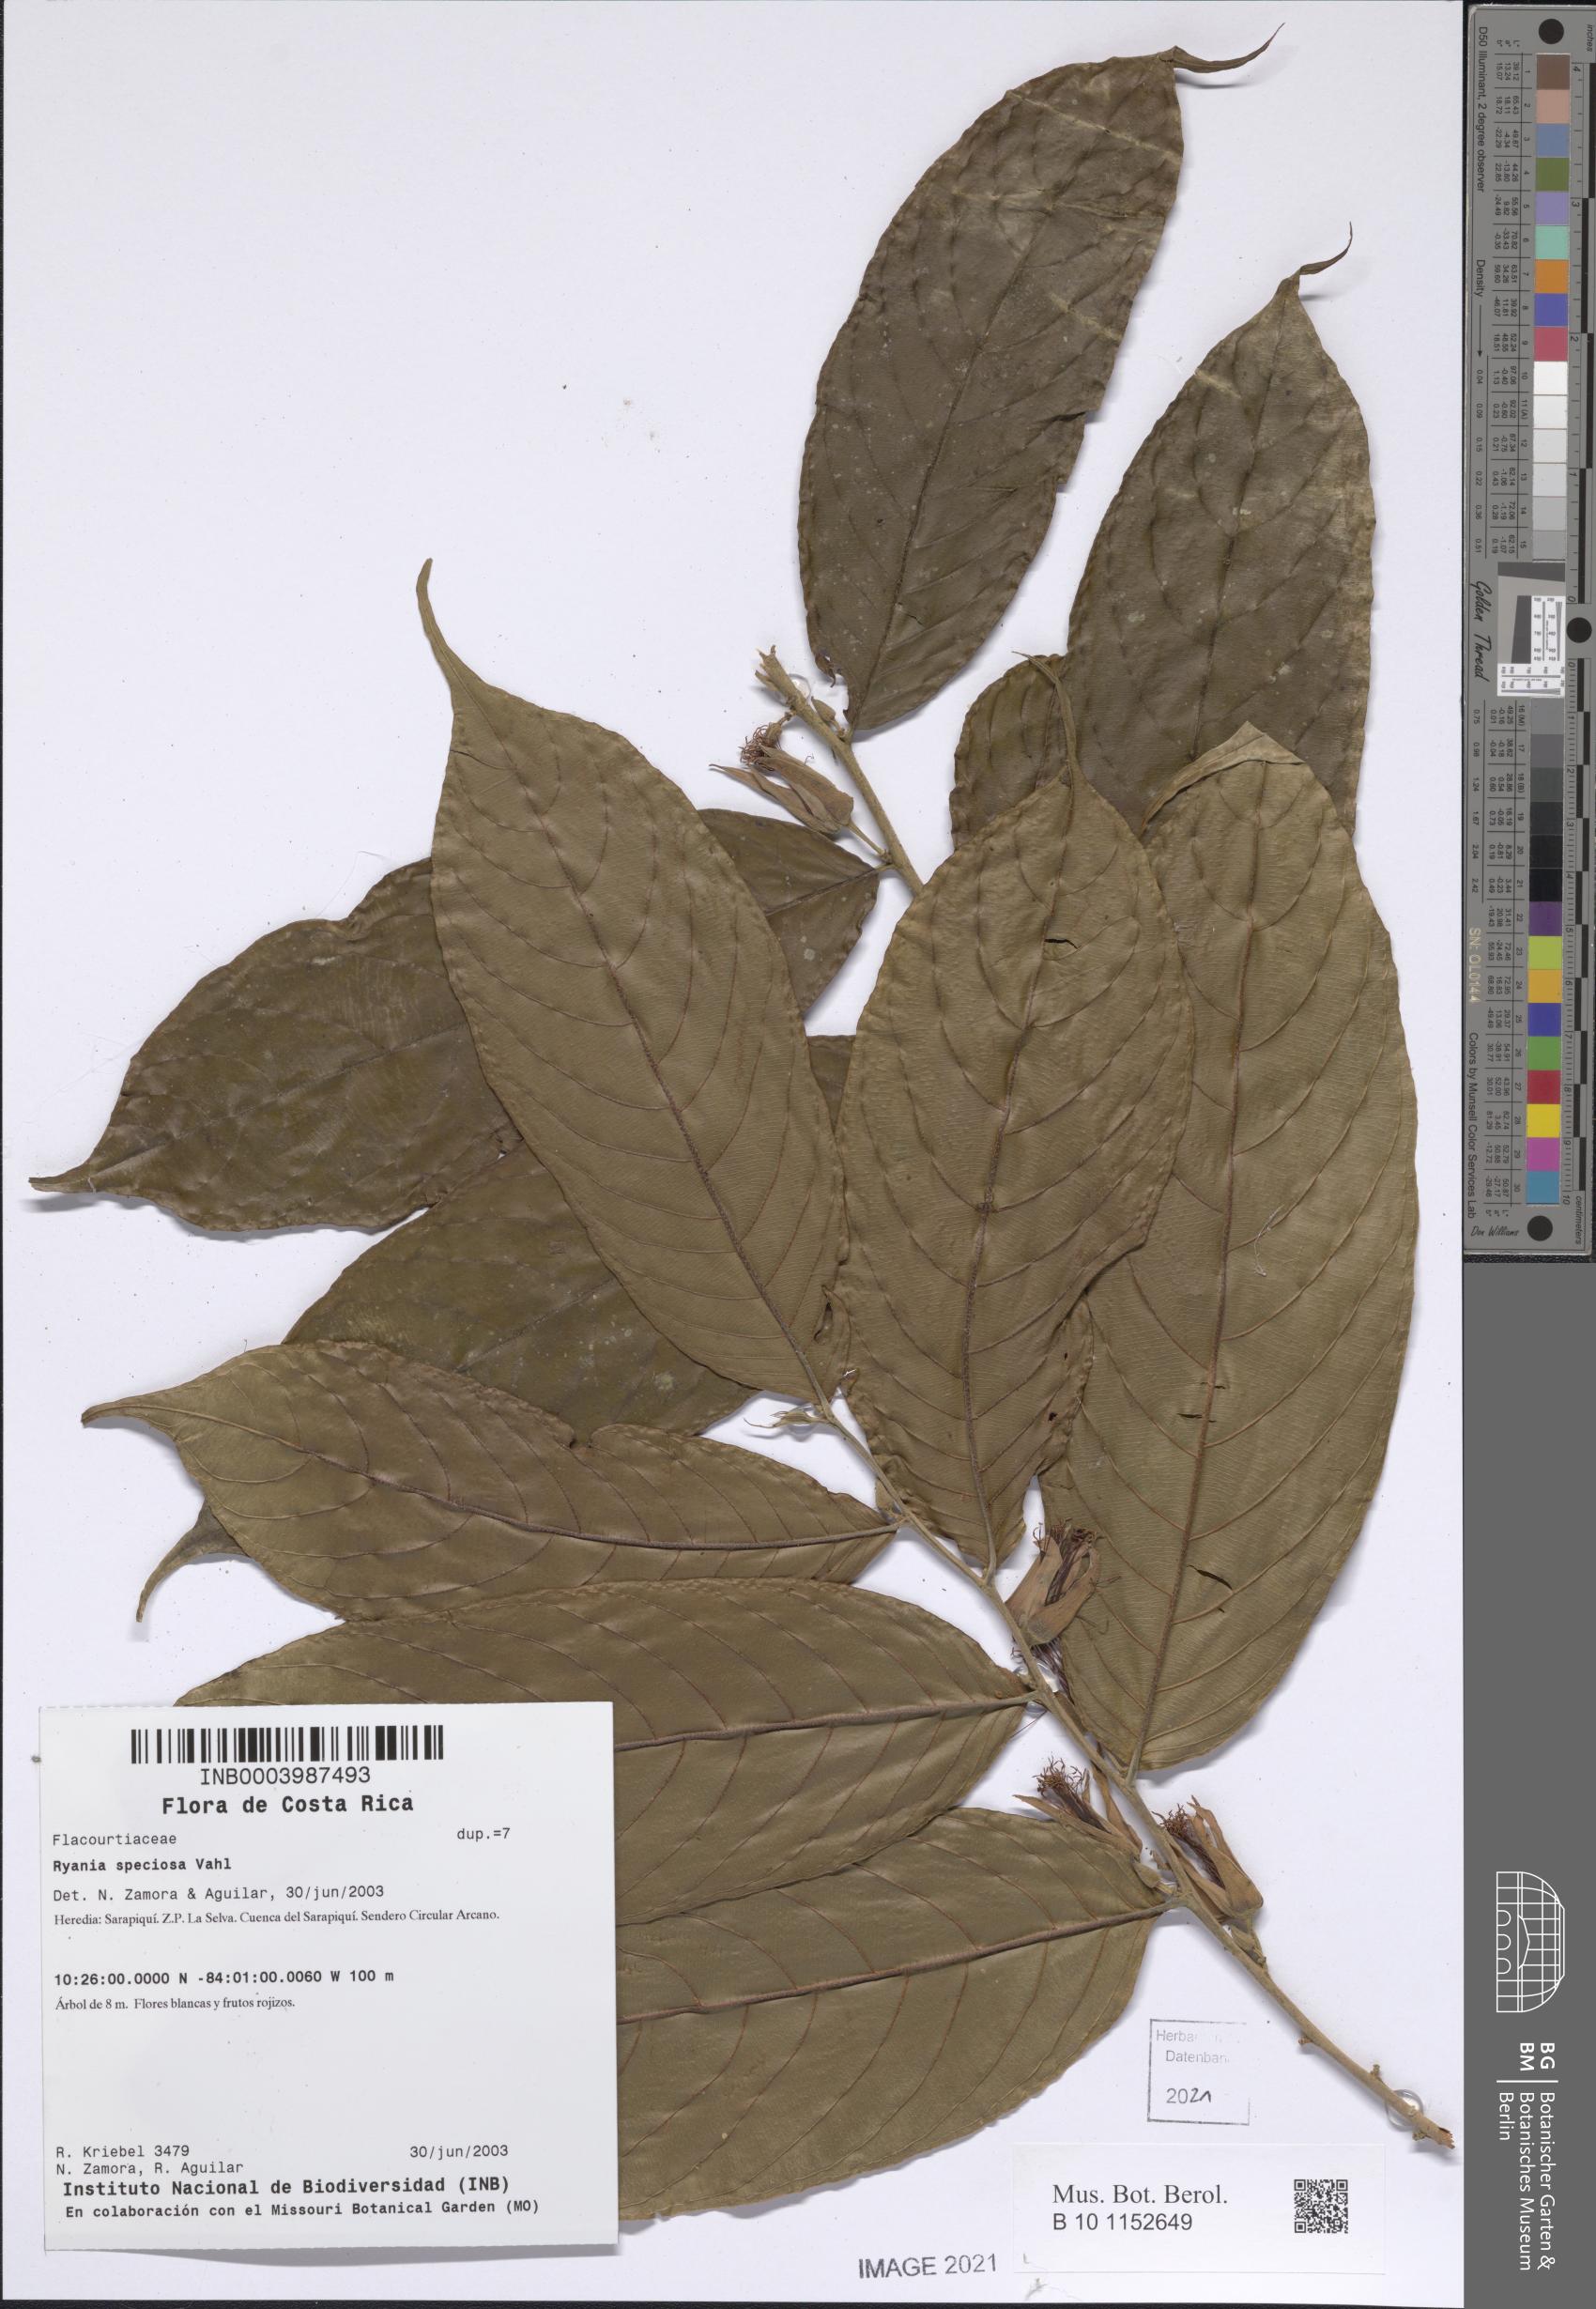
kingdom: Plantae
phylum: Tracheophyta
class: Magnoliopsida
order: Malpighiales
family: Salicaceae
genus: Ryania
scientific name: Ryania speciosa
